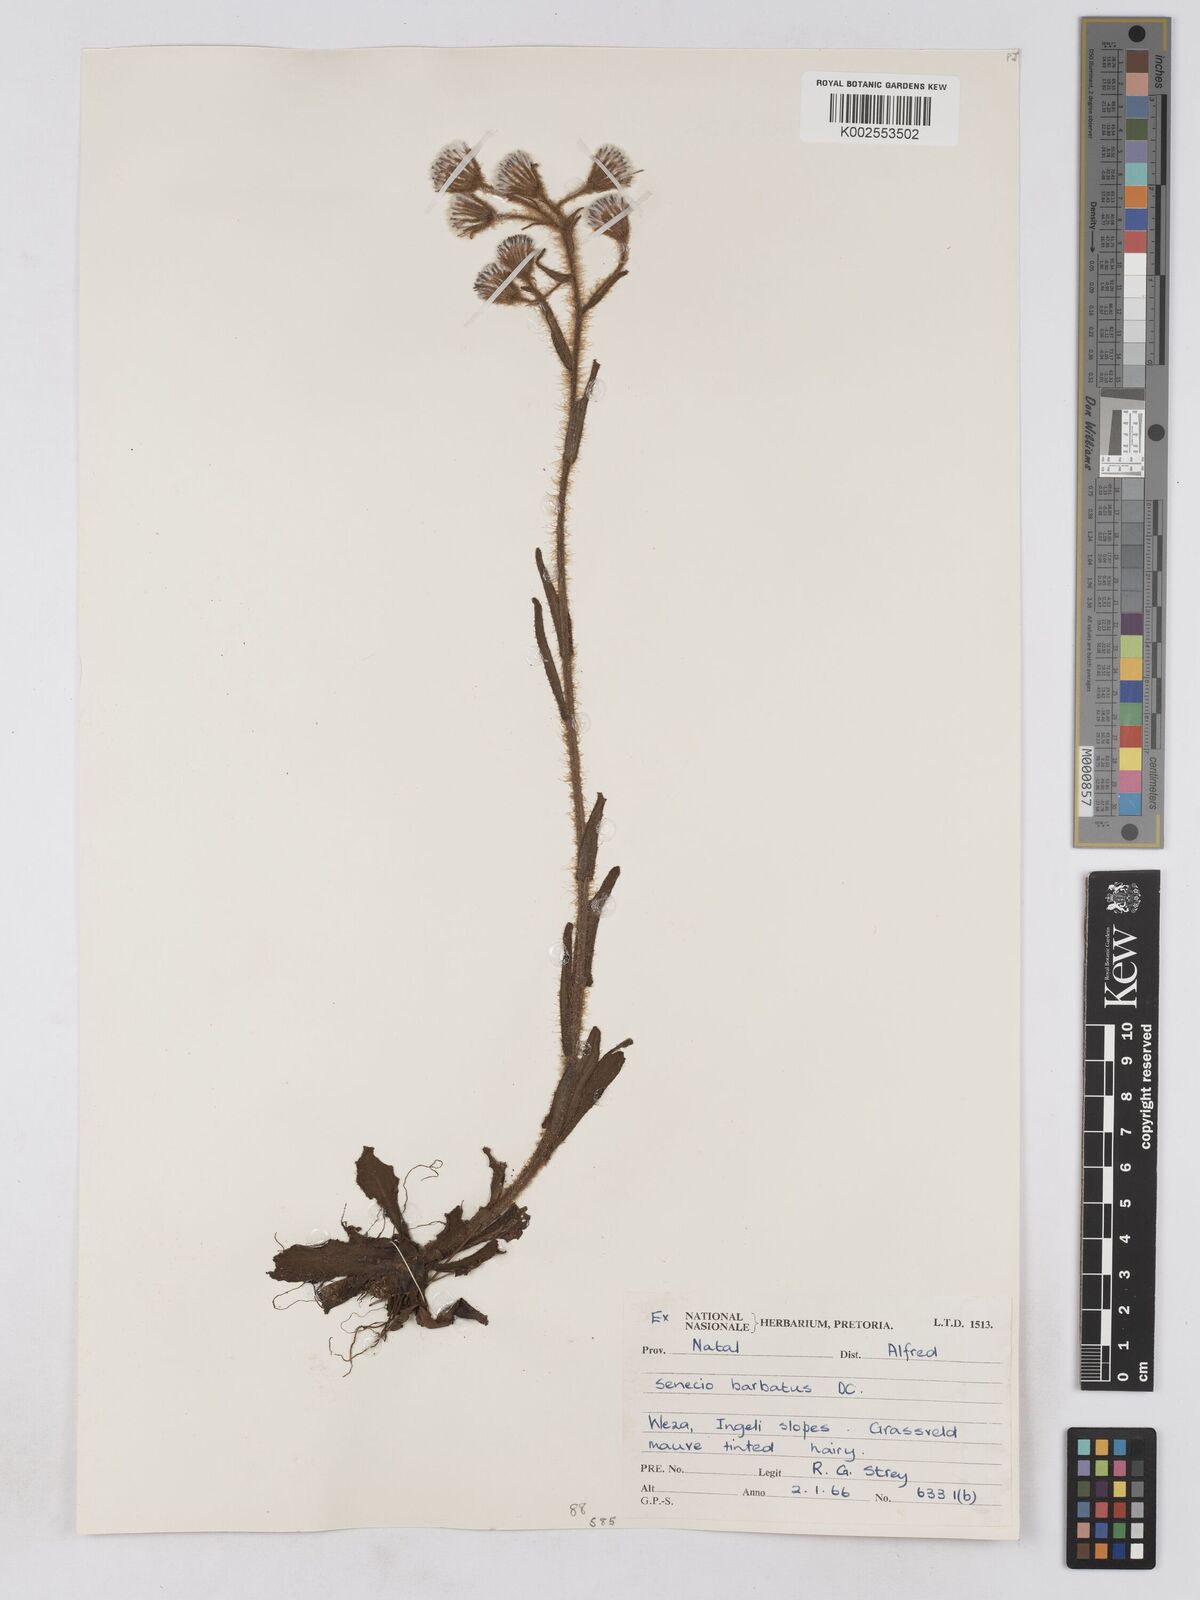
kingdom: Plantae
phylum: Tracheophyta
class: Magnoliopsida
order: Asterales
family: Asteraceae
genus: Senecio
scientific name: Senecio barbatus
